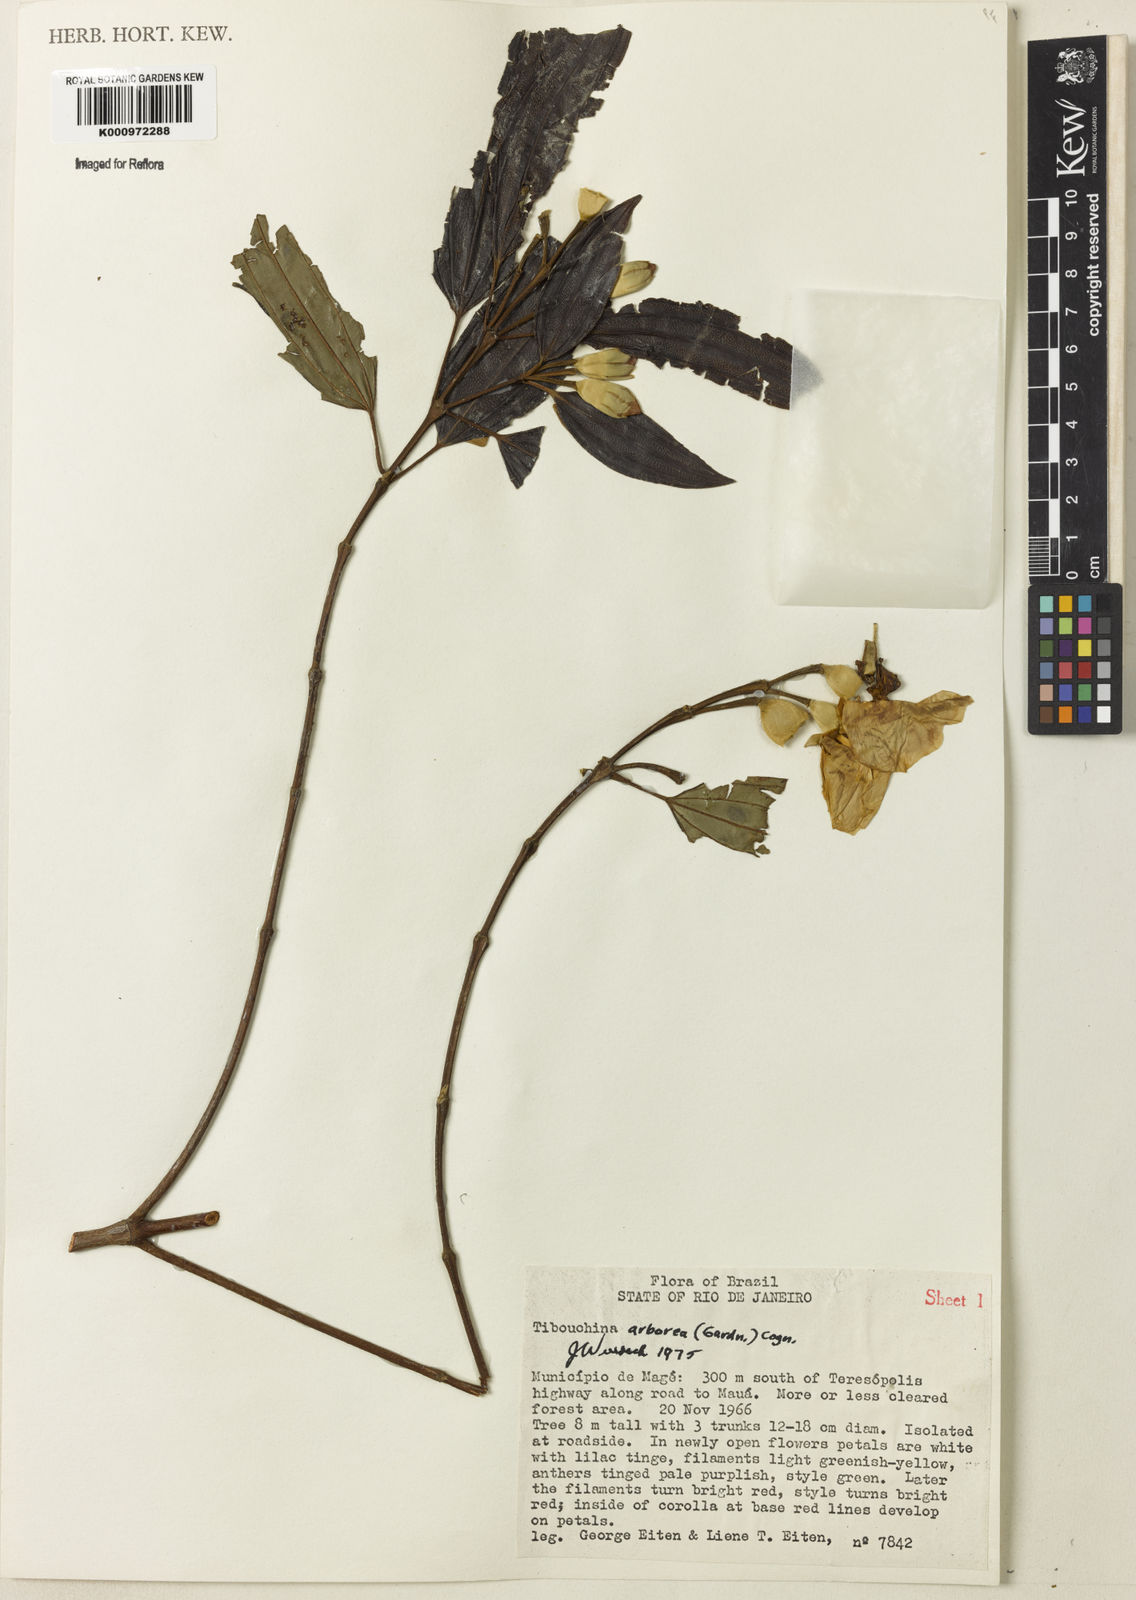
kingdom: Plantae
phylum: Tracheophyta
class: Magnoliopsida
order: Myrtales
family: Melastomataceae
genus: Pleroma
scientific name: Pleroma arboreum
